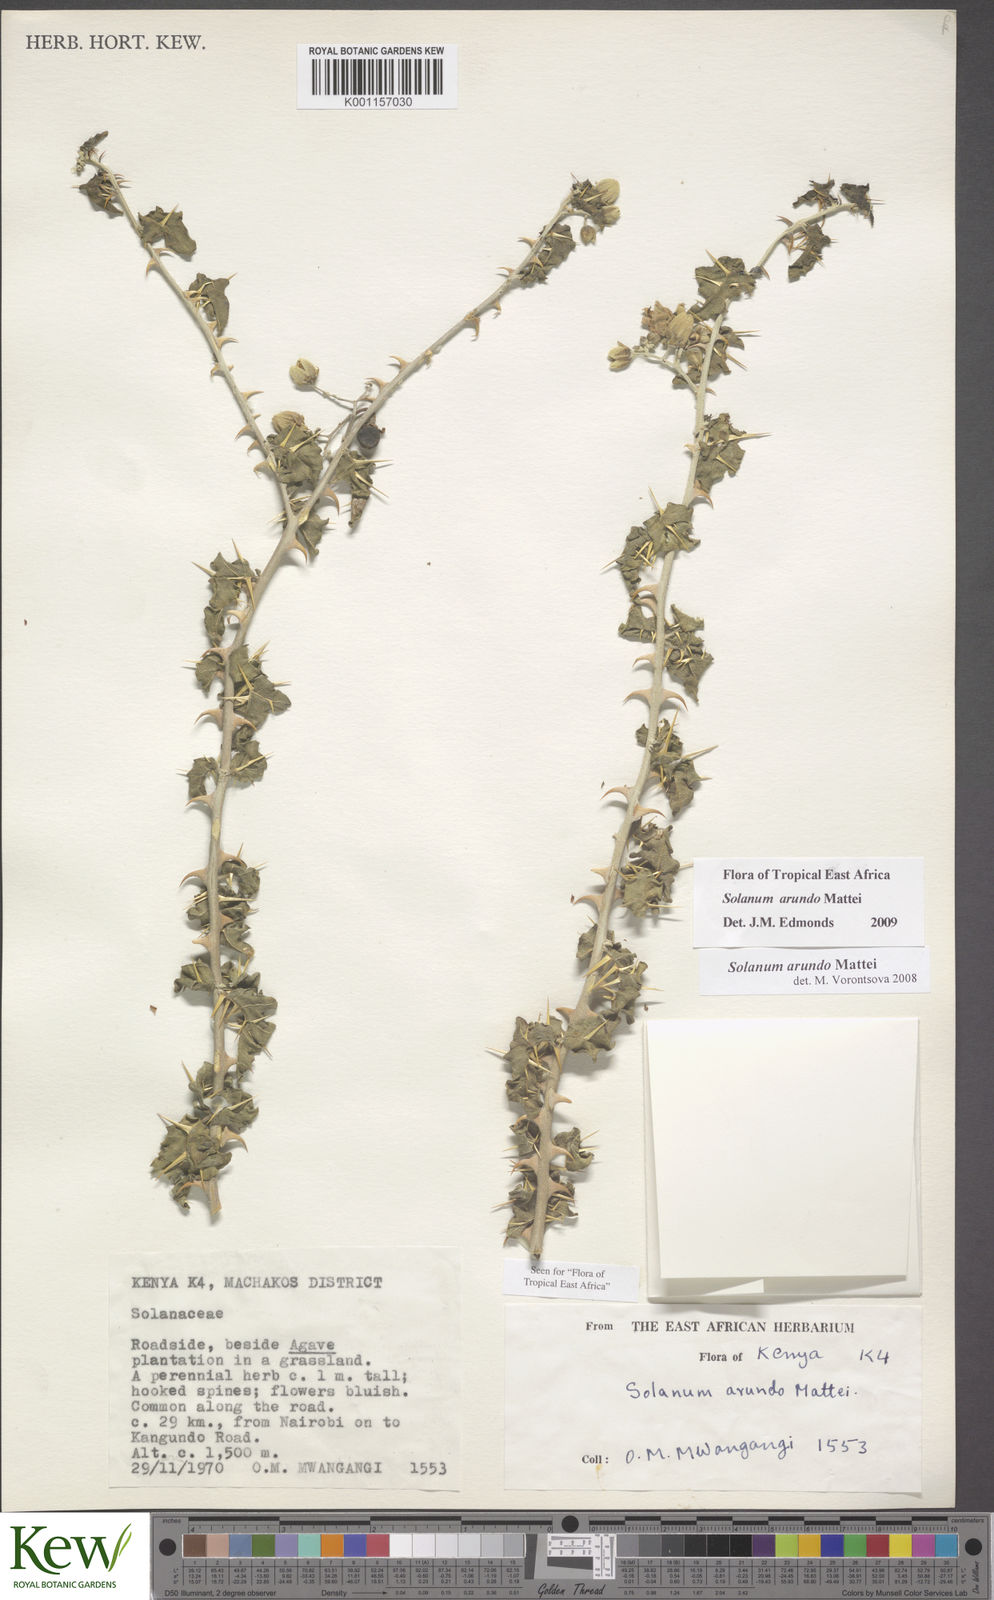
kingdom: Plantae
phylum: Tracheophyta
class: Magnoliopsida
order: Solanales
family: Solanaceae
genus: Solanum
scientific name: Solanum arundo
